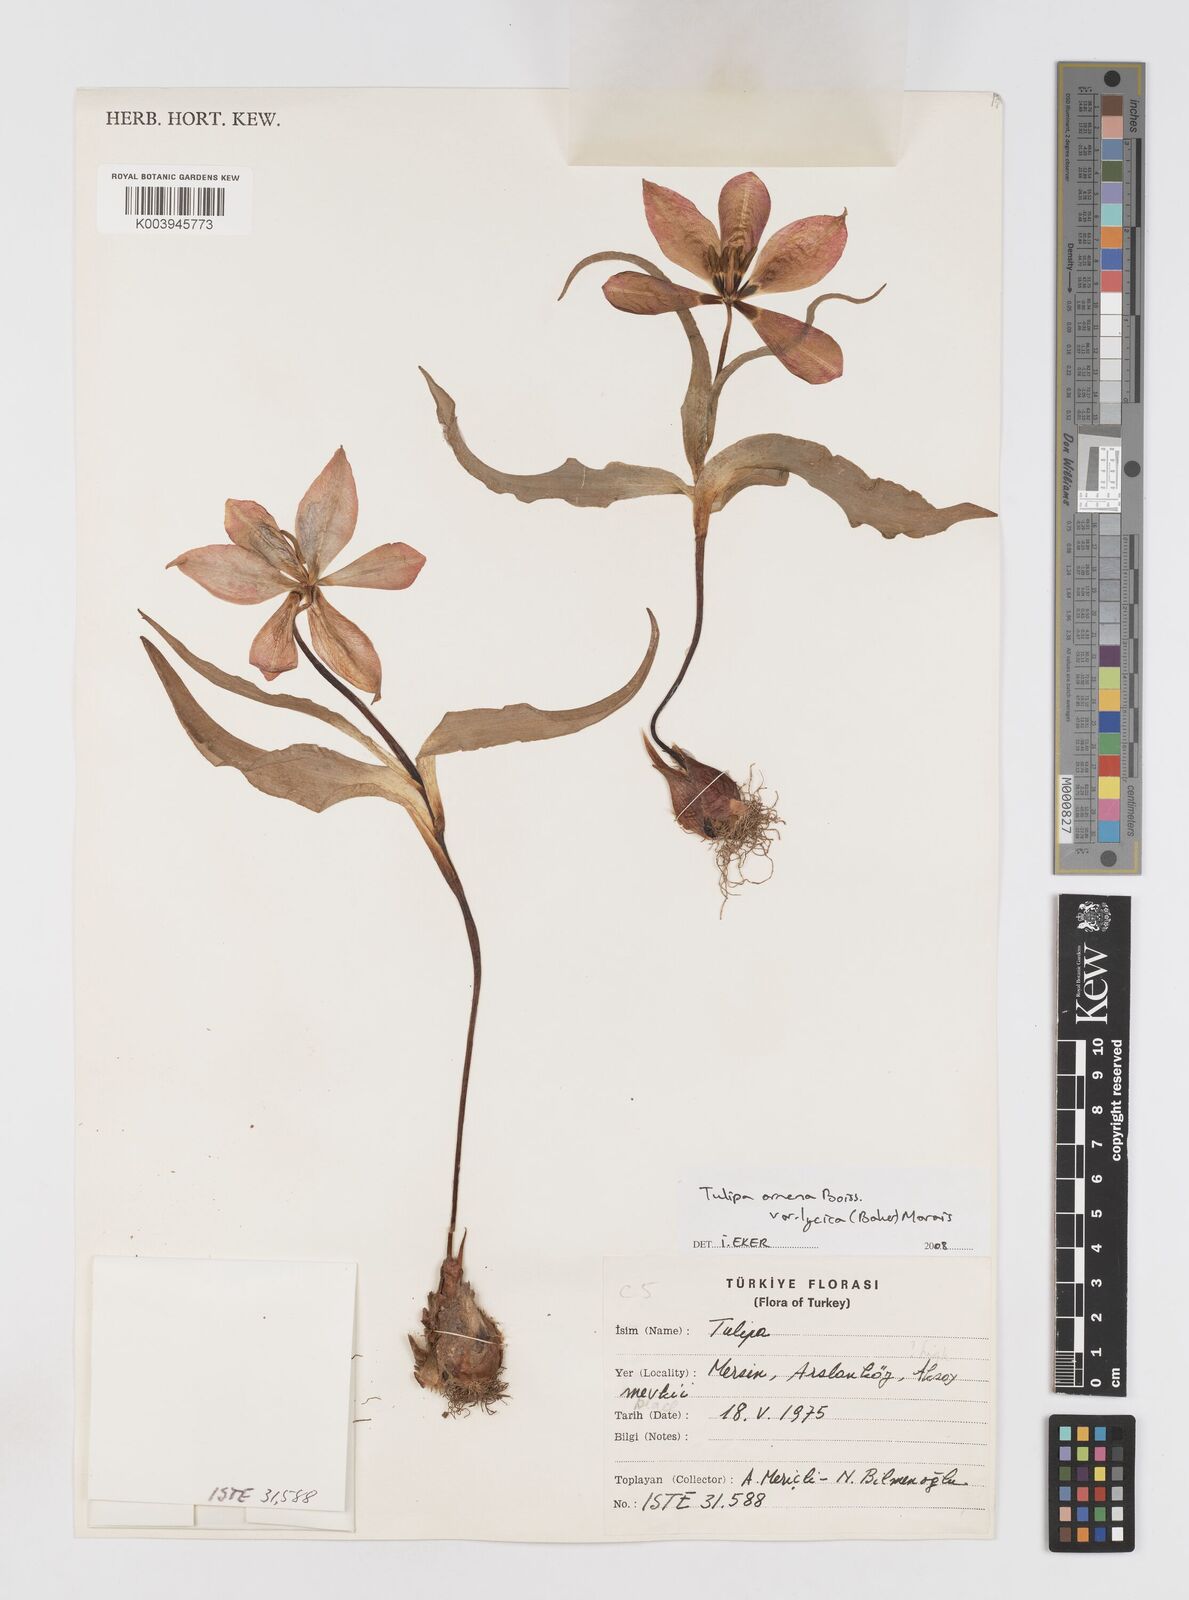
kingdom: Plantae
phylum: Tracheophyta
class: Liliopsida
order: Liliales
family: Liliaceae
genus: Tulipa
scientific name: Tulipa foliosa
